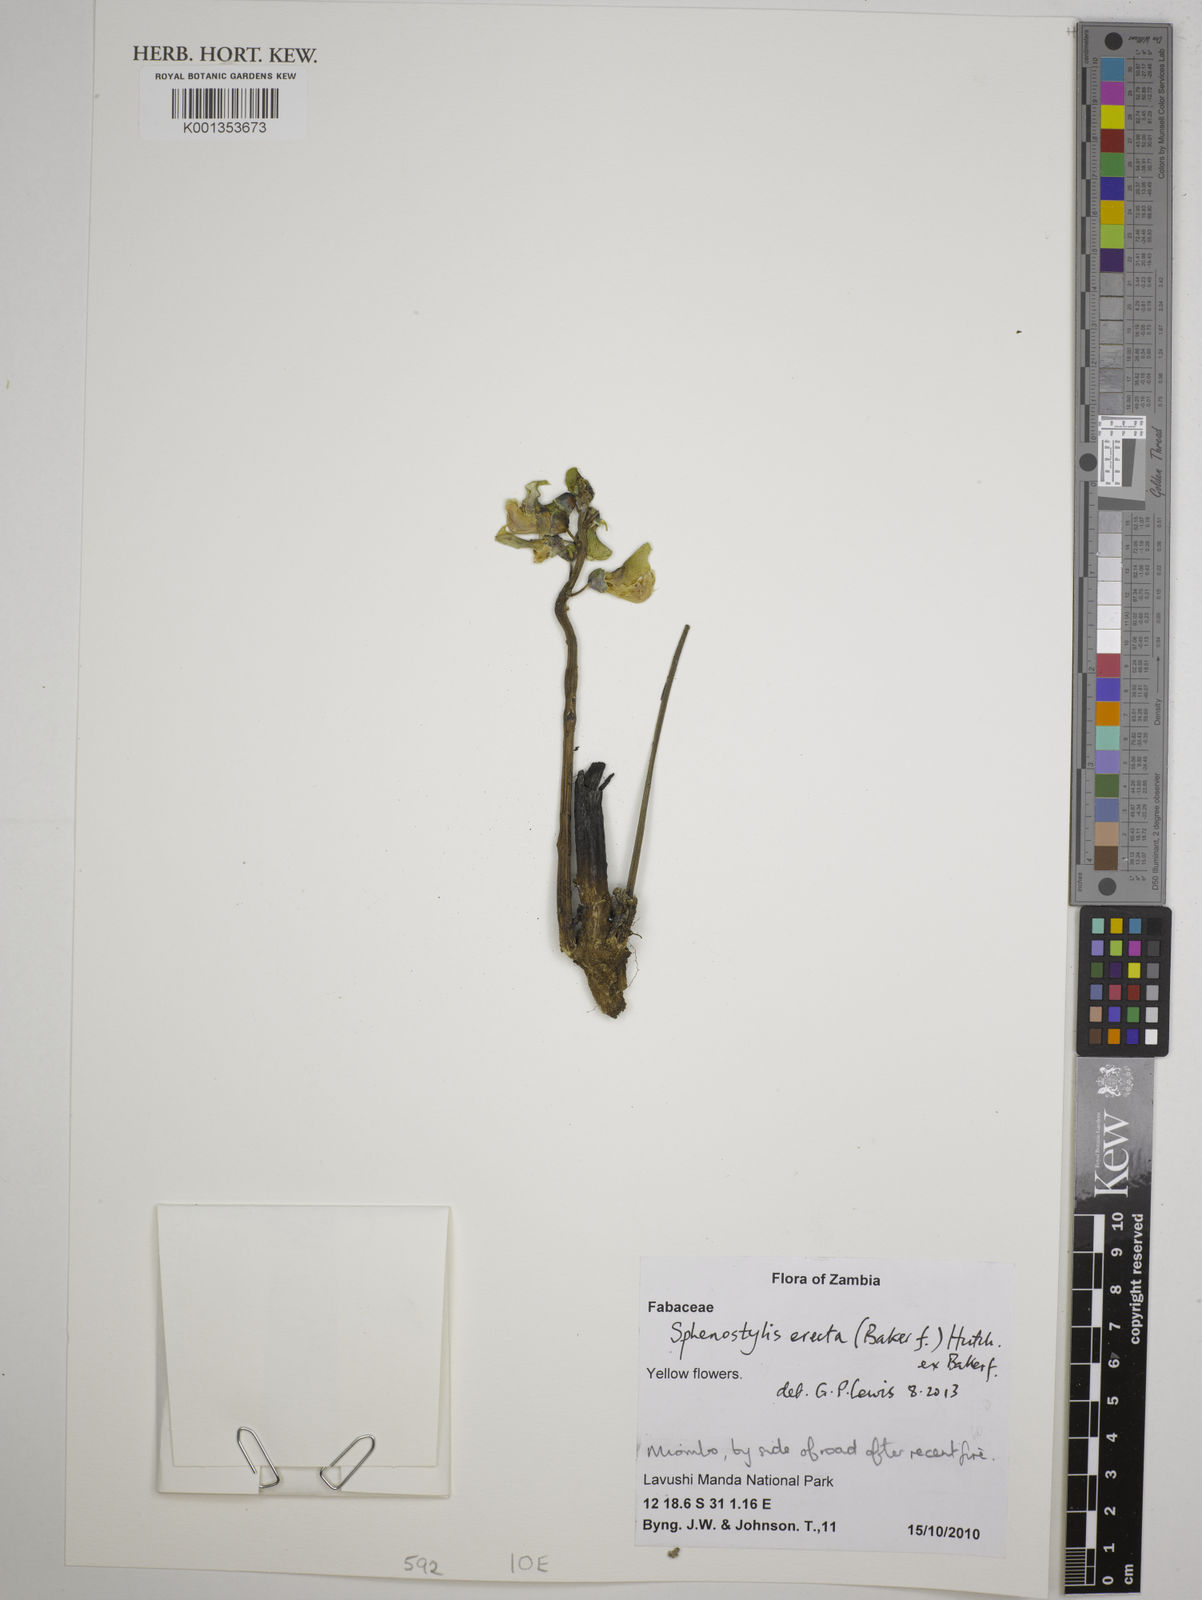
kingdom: Plantae
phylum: Tracheophyta
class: Magnoliopsida
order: Fabales
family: Fabaceae
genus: Sphenostylis
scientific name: Sphenostylis erecta
